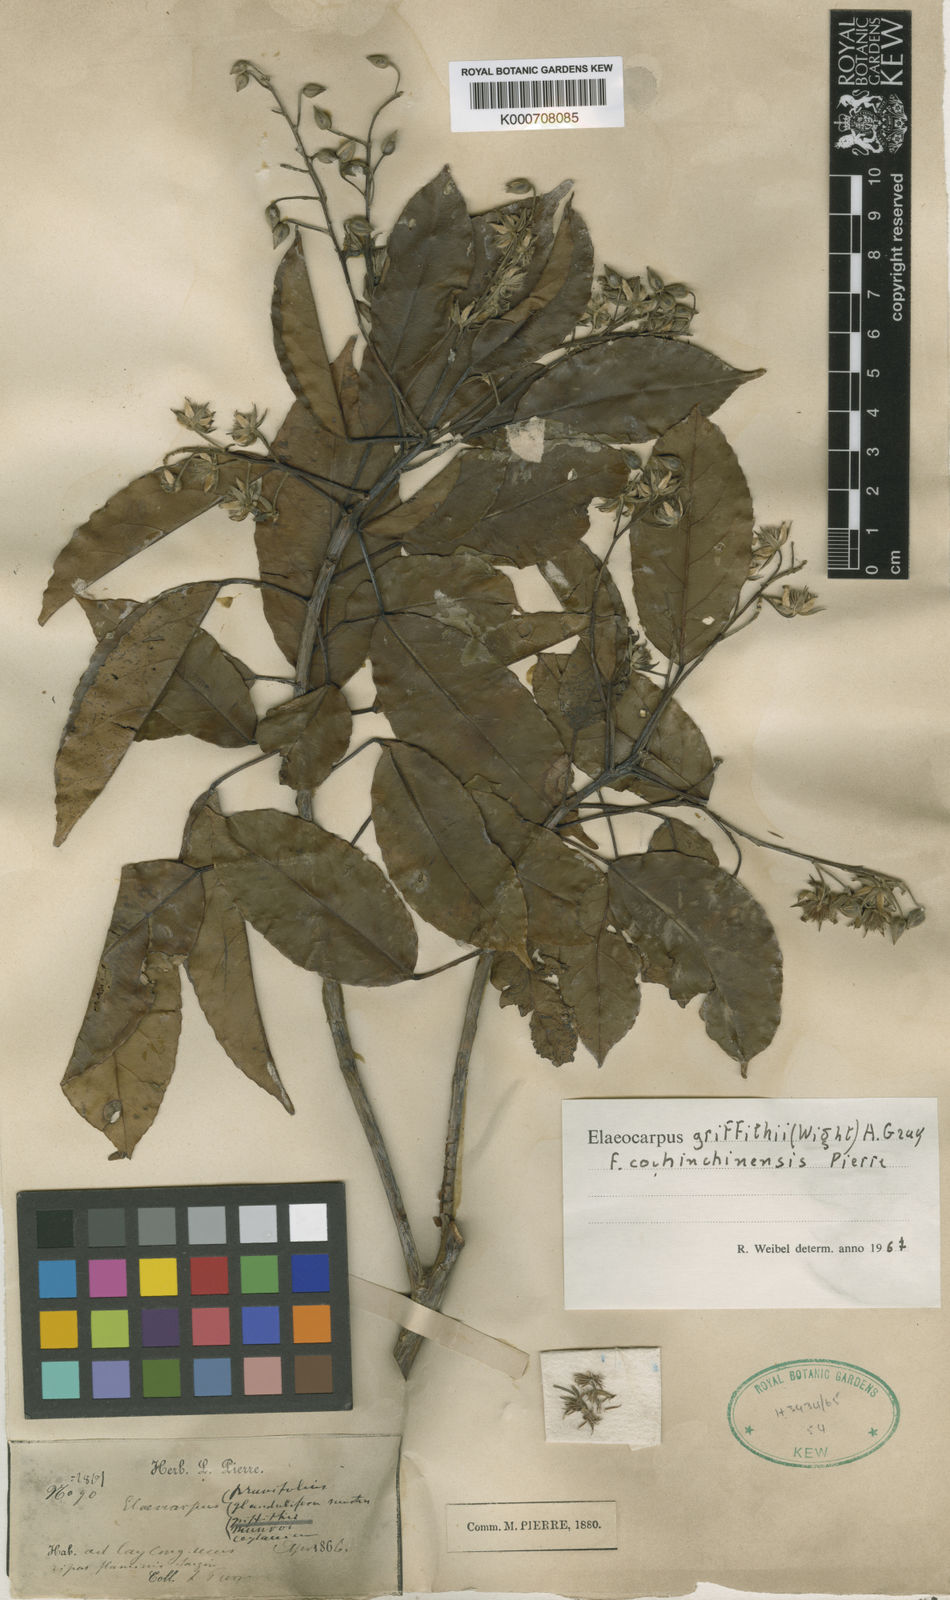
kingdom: Plantae
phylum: Tracheophyta
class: Magnoliopsida
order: Oxalidales
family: Elaeocarpaceae
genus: Elaeocarpus
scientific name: Elaeocarpus griffithii
